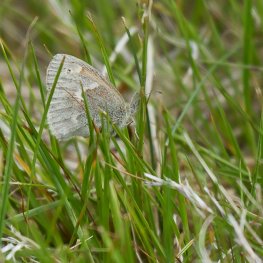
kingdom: Animalia
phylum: Arthropoda
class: Insecta
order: Lepidoptera
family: Nymphalidae
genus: Coenonympha
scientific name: Coenonympha tullia
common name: Large Heath
